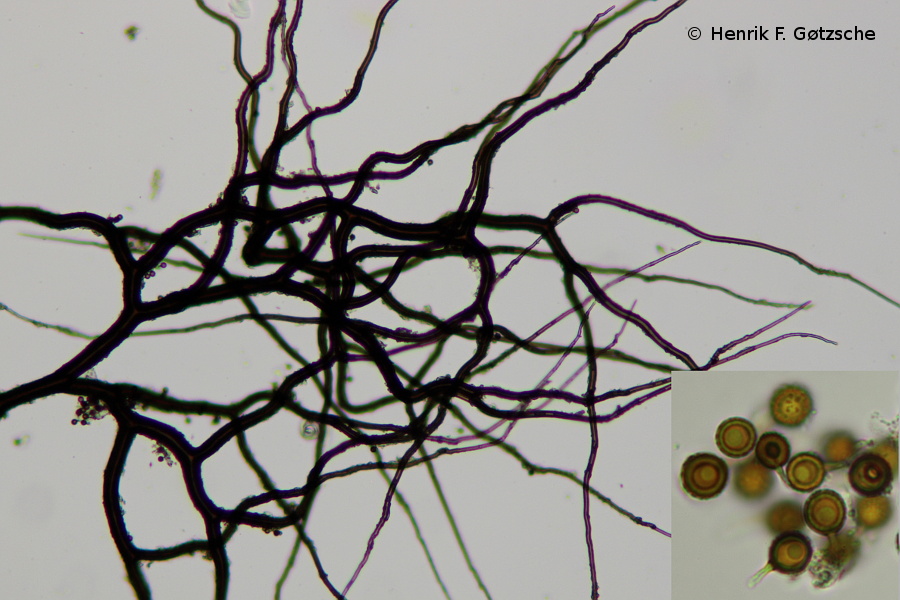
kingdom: Fungi
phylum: Basidiomycota
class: Agaricomycetes
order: Agaricales
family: Lycoperdaceae
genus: Bovista
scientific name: Bovista nigrescens
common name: sortagtig bovist
